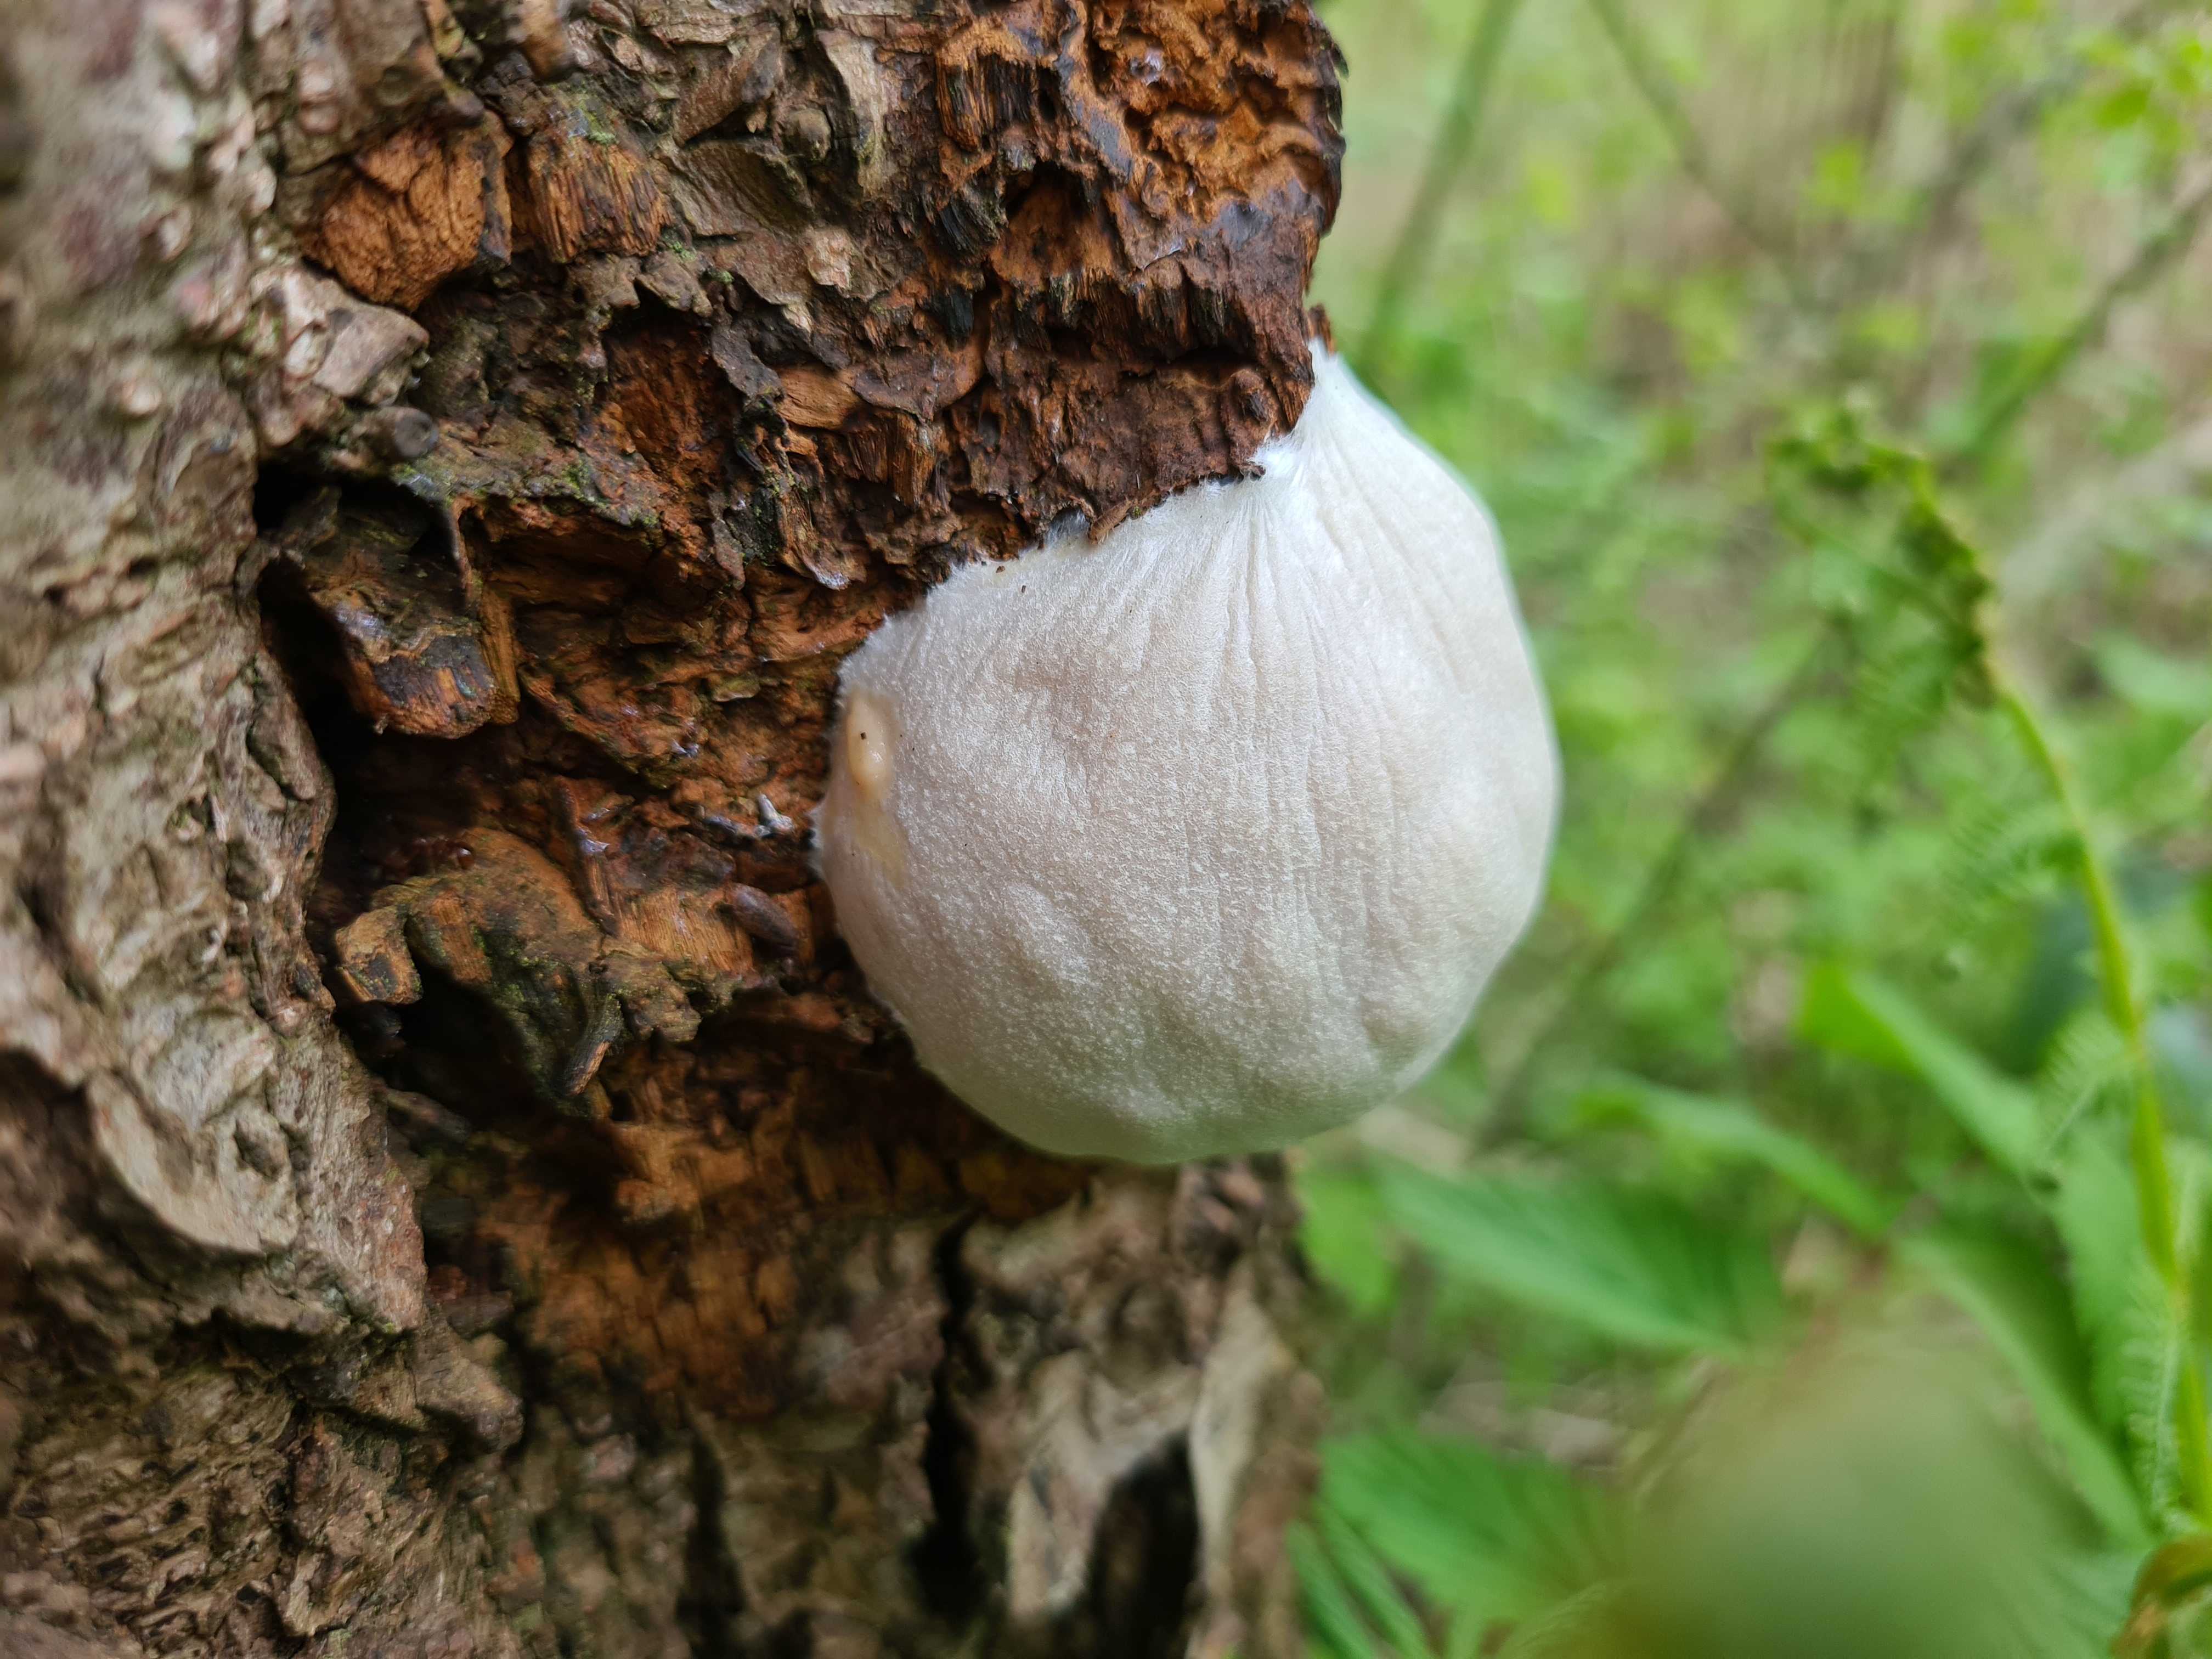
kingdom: Protozoa
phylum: Mycetozoa
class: Myxomycetes
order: Cribrariales
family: Tubiferaceae
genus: Reticularia
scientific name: Reticularia lycoperdon
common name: skinnende støvpude
